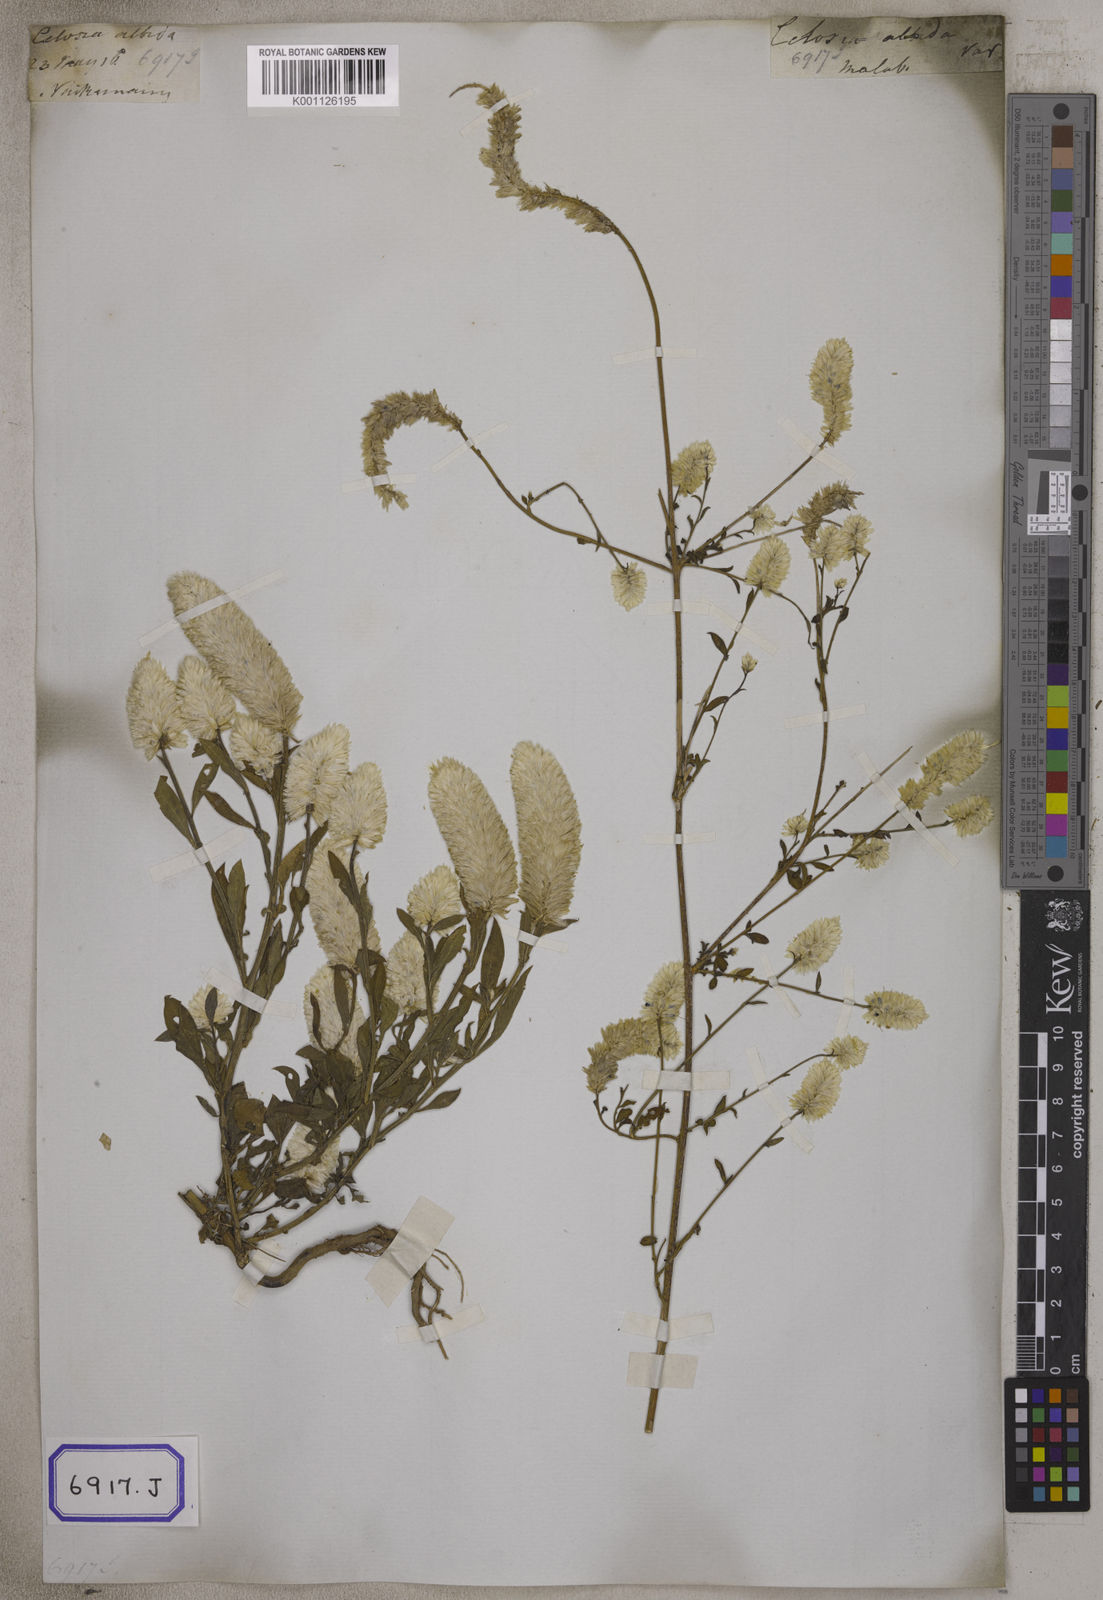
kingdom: Plantae
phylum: Tracheophyta
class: Magnoliopsida
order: Caryophyllales
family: Amaranthaceae
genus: Celosia
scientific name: Celosia argentea
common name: Feather cockscomb
